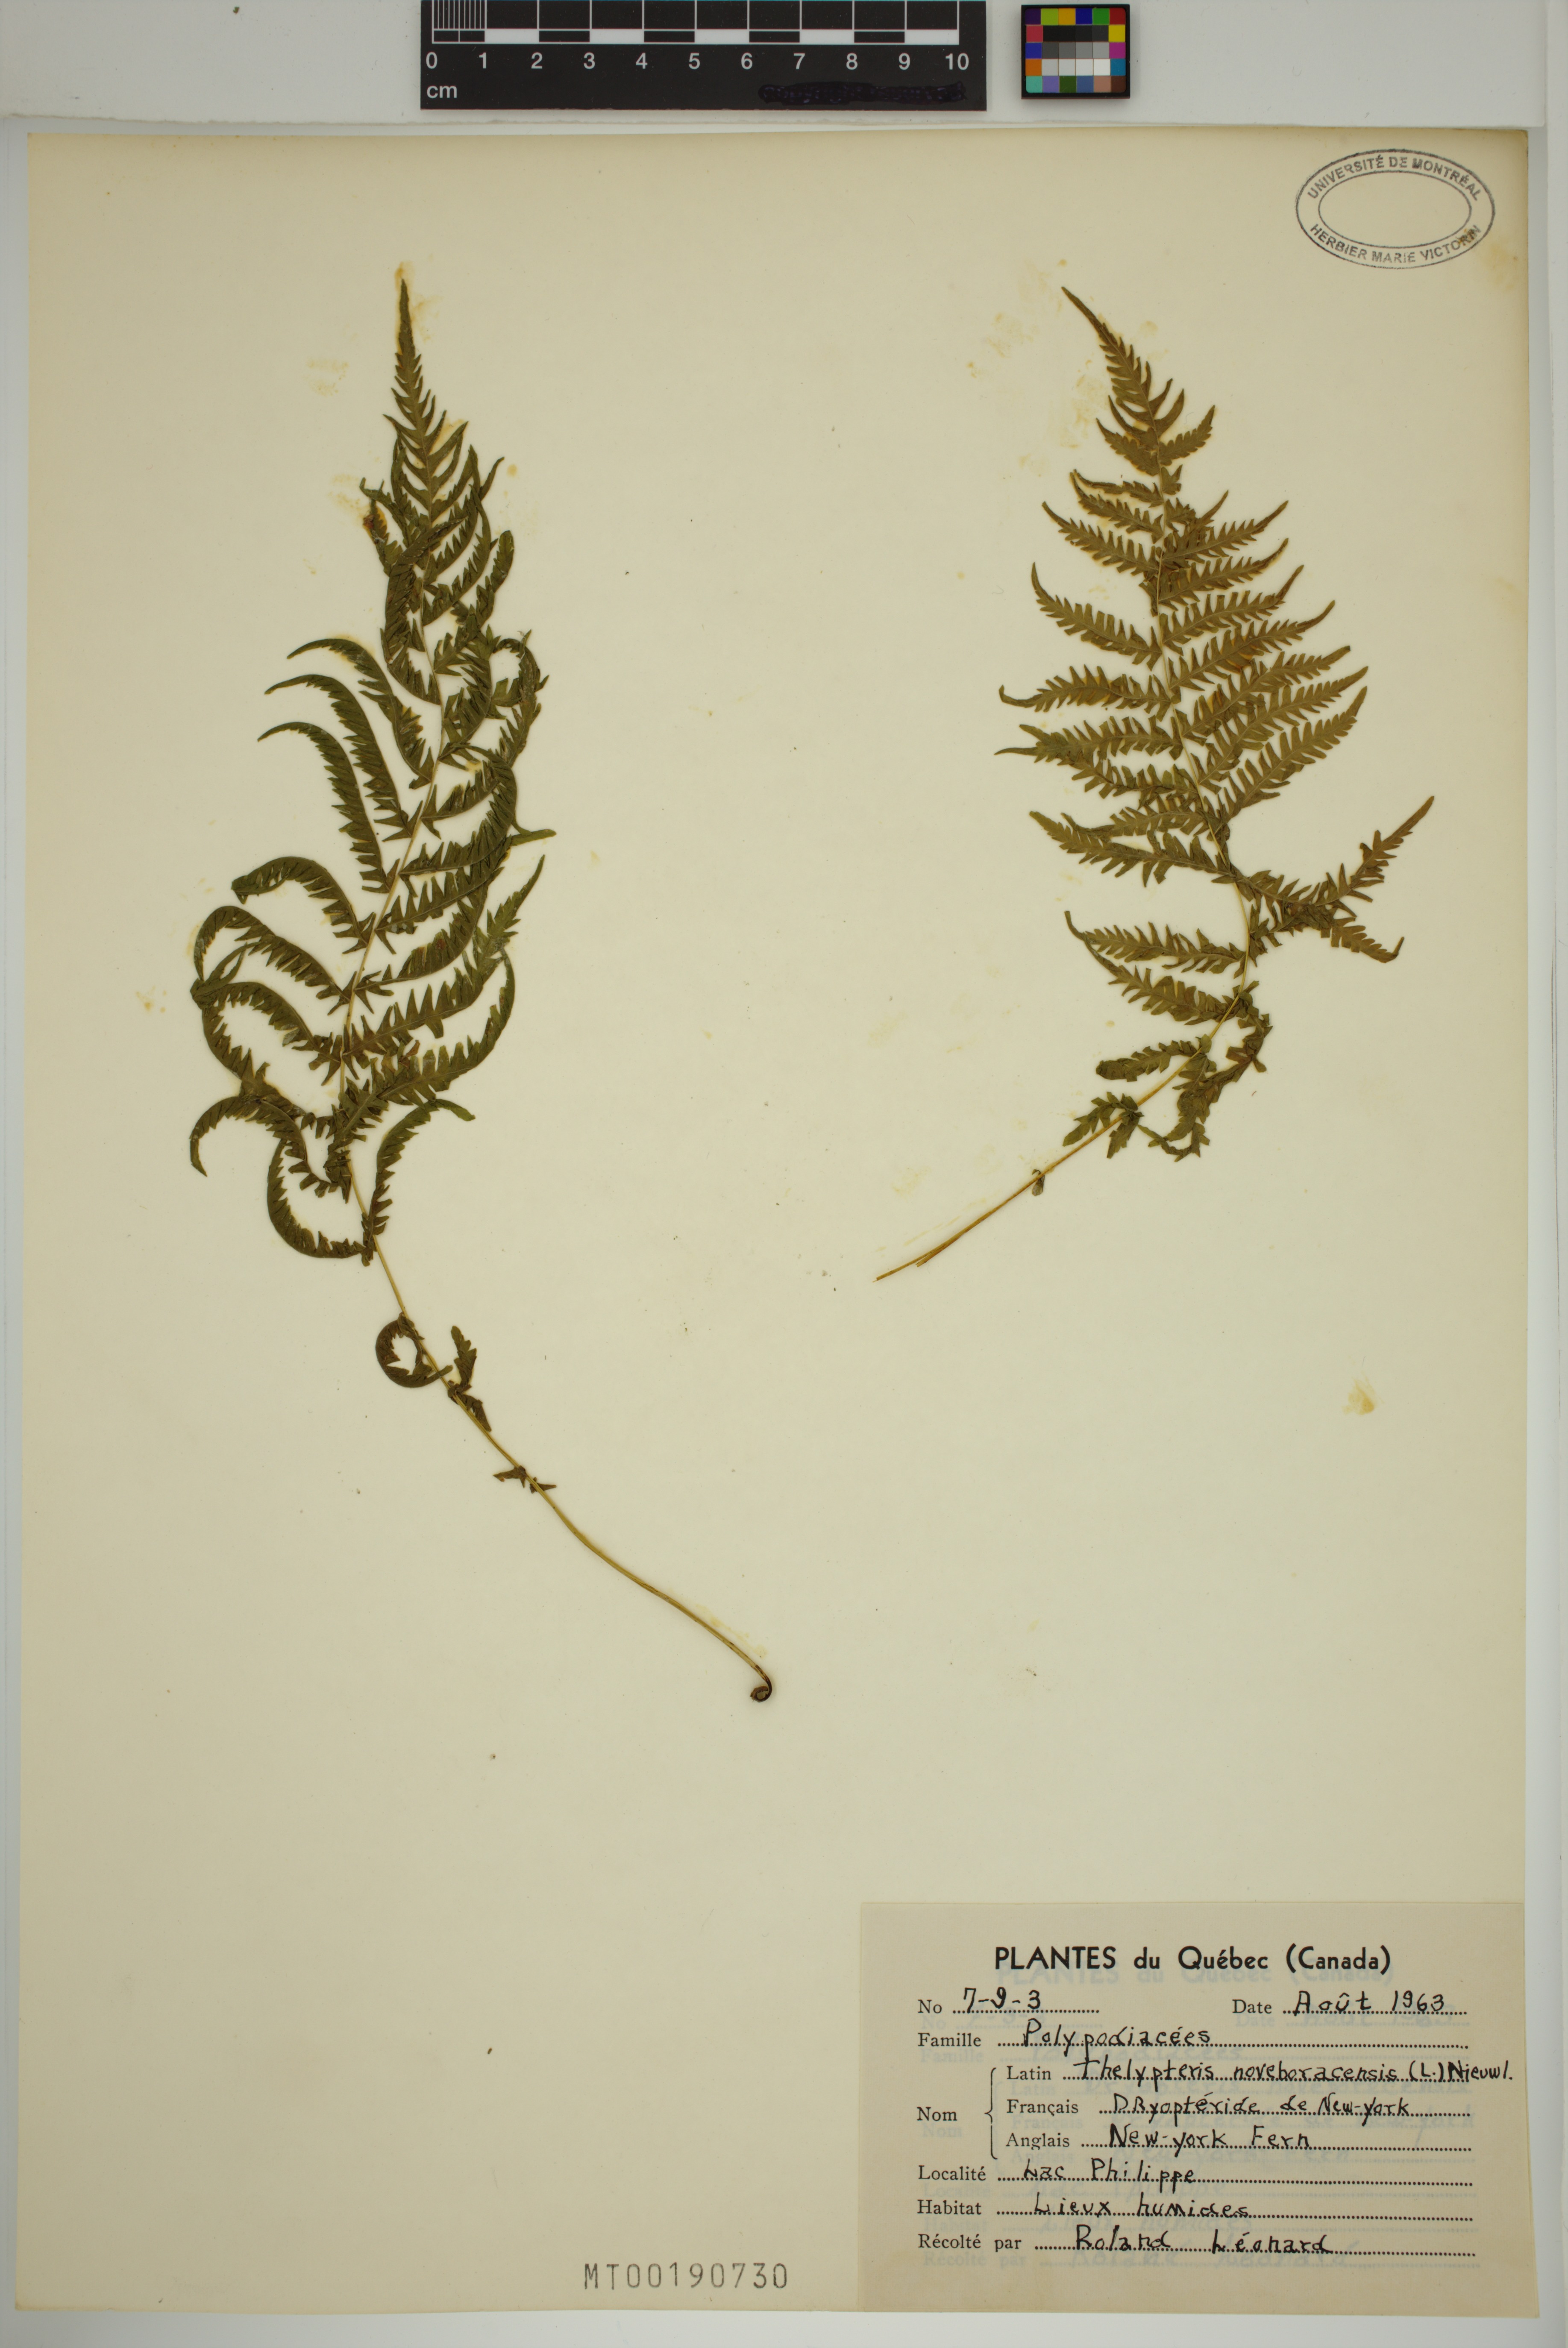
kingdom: Plantae
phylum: Tracheophyta
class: Polypodiopsida
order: Polypodiales
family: Thelypteridaceae
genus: Amauropelta
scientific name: Amauropelta noveboracensis
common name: New york fern
